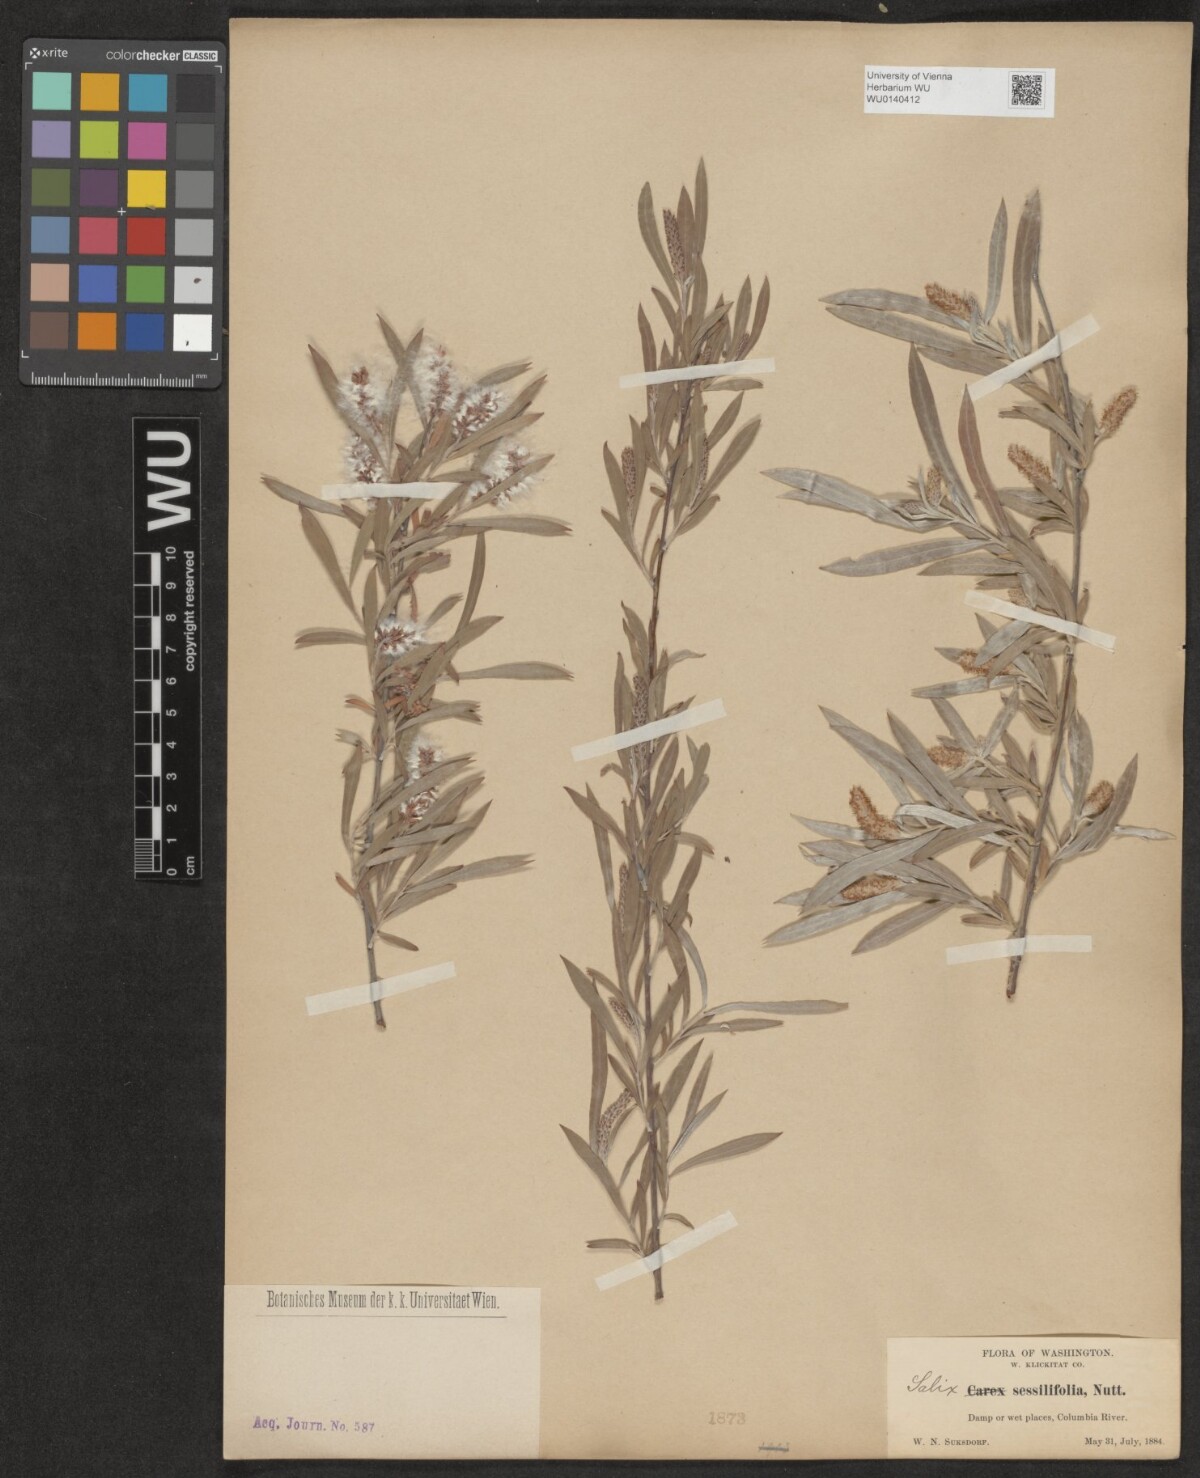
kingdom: Plantae
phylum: Tracheophyta
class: Magnoliopsida
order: Malpighiales
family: Salicaceae
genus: Salix
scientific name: Salix sessilifolia
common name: Longleaf willow
